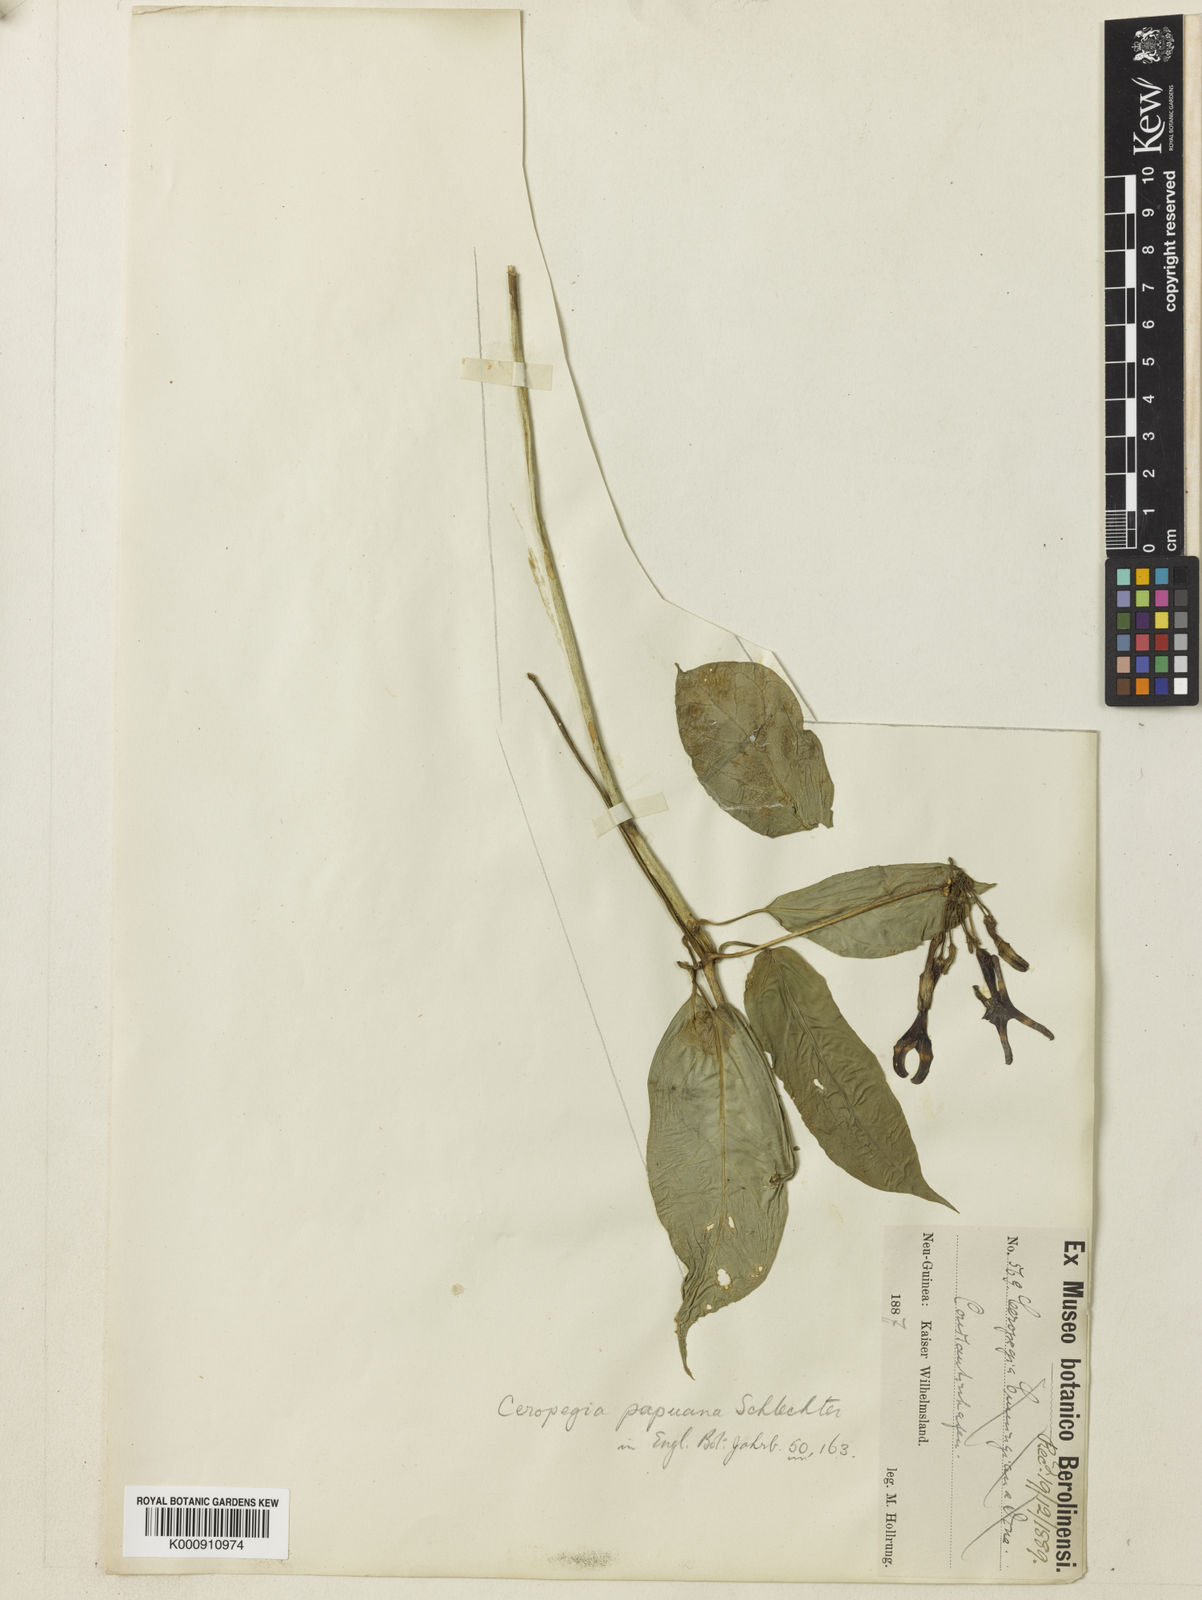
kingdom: Plantae
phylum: Tracheophyta
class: Magnoliopsida
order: Gentianales
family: Apocynaceae
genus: Ceropegia
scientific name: Ceropegia cumingiana
